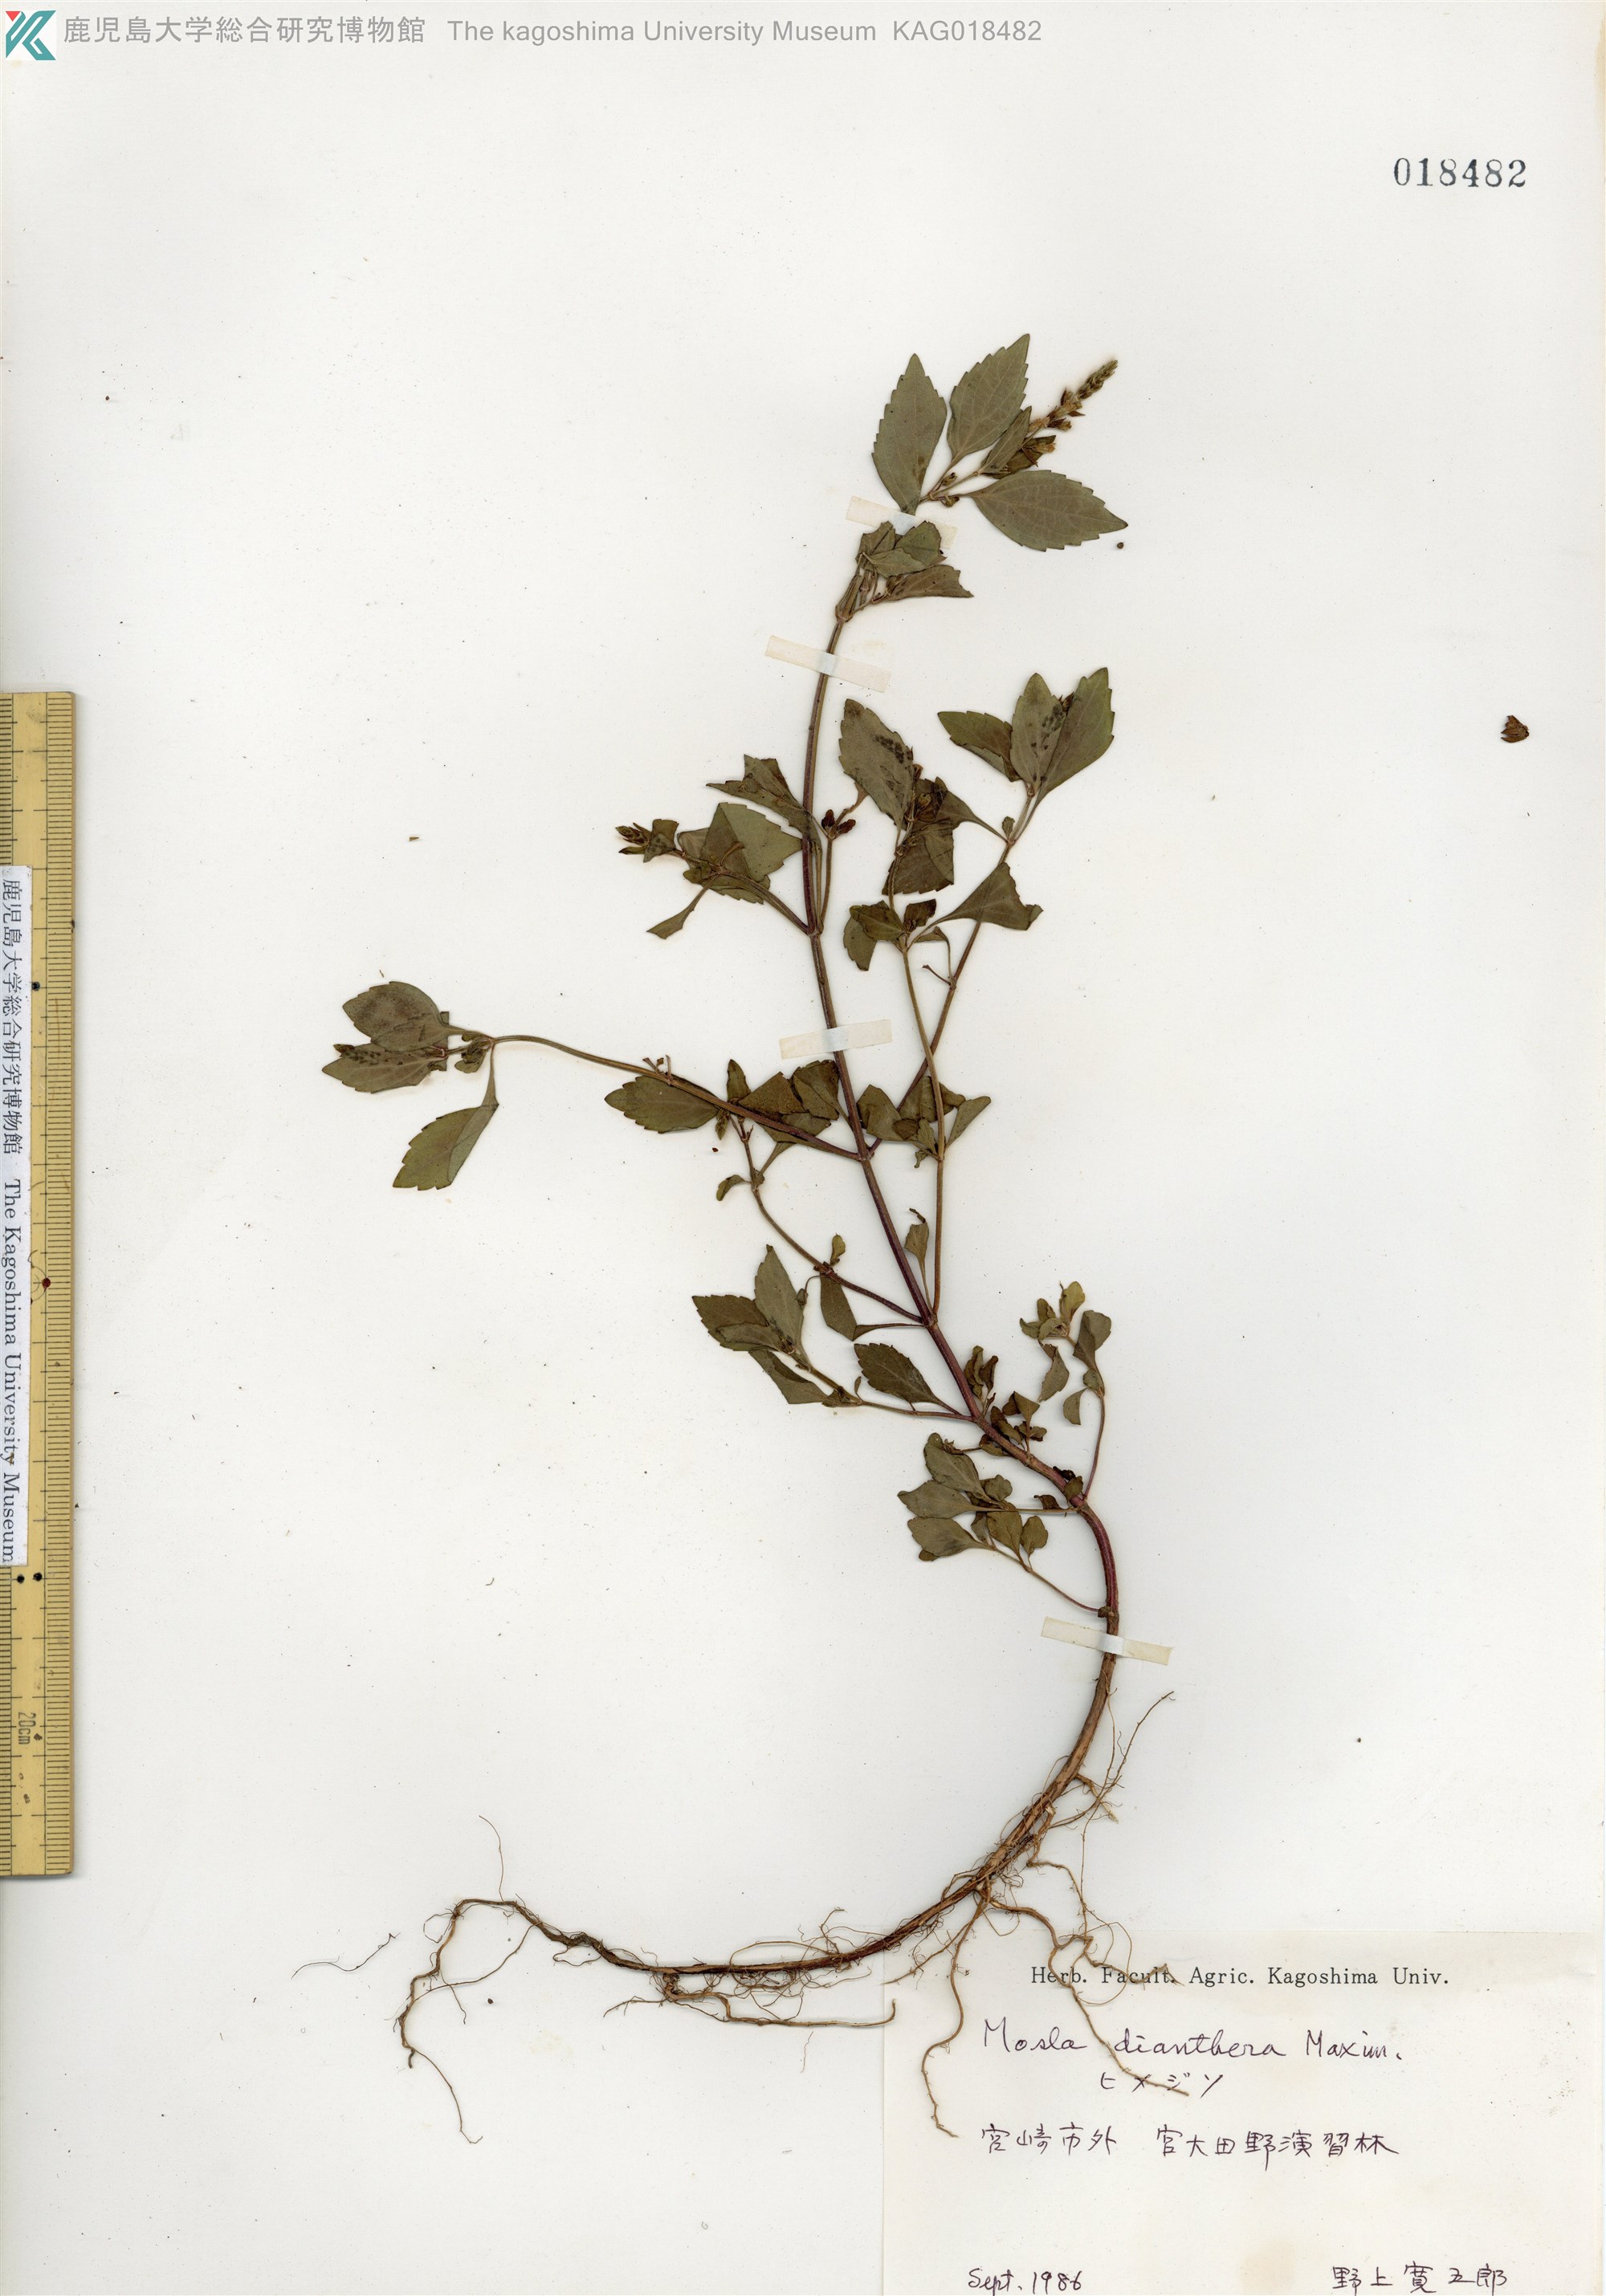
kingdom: Plantae
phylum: Tracheophyta
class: Magnoliopsida
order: Lamiales
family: Lamiaceae
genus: Mosla
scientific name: Mosla dianthera
